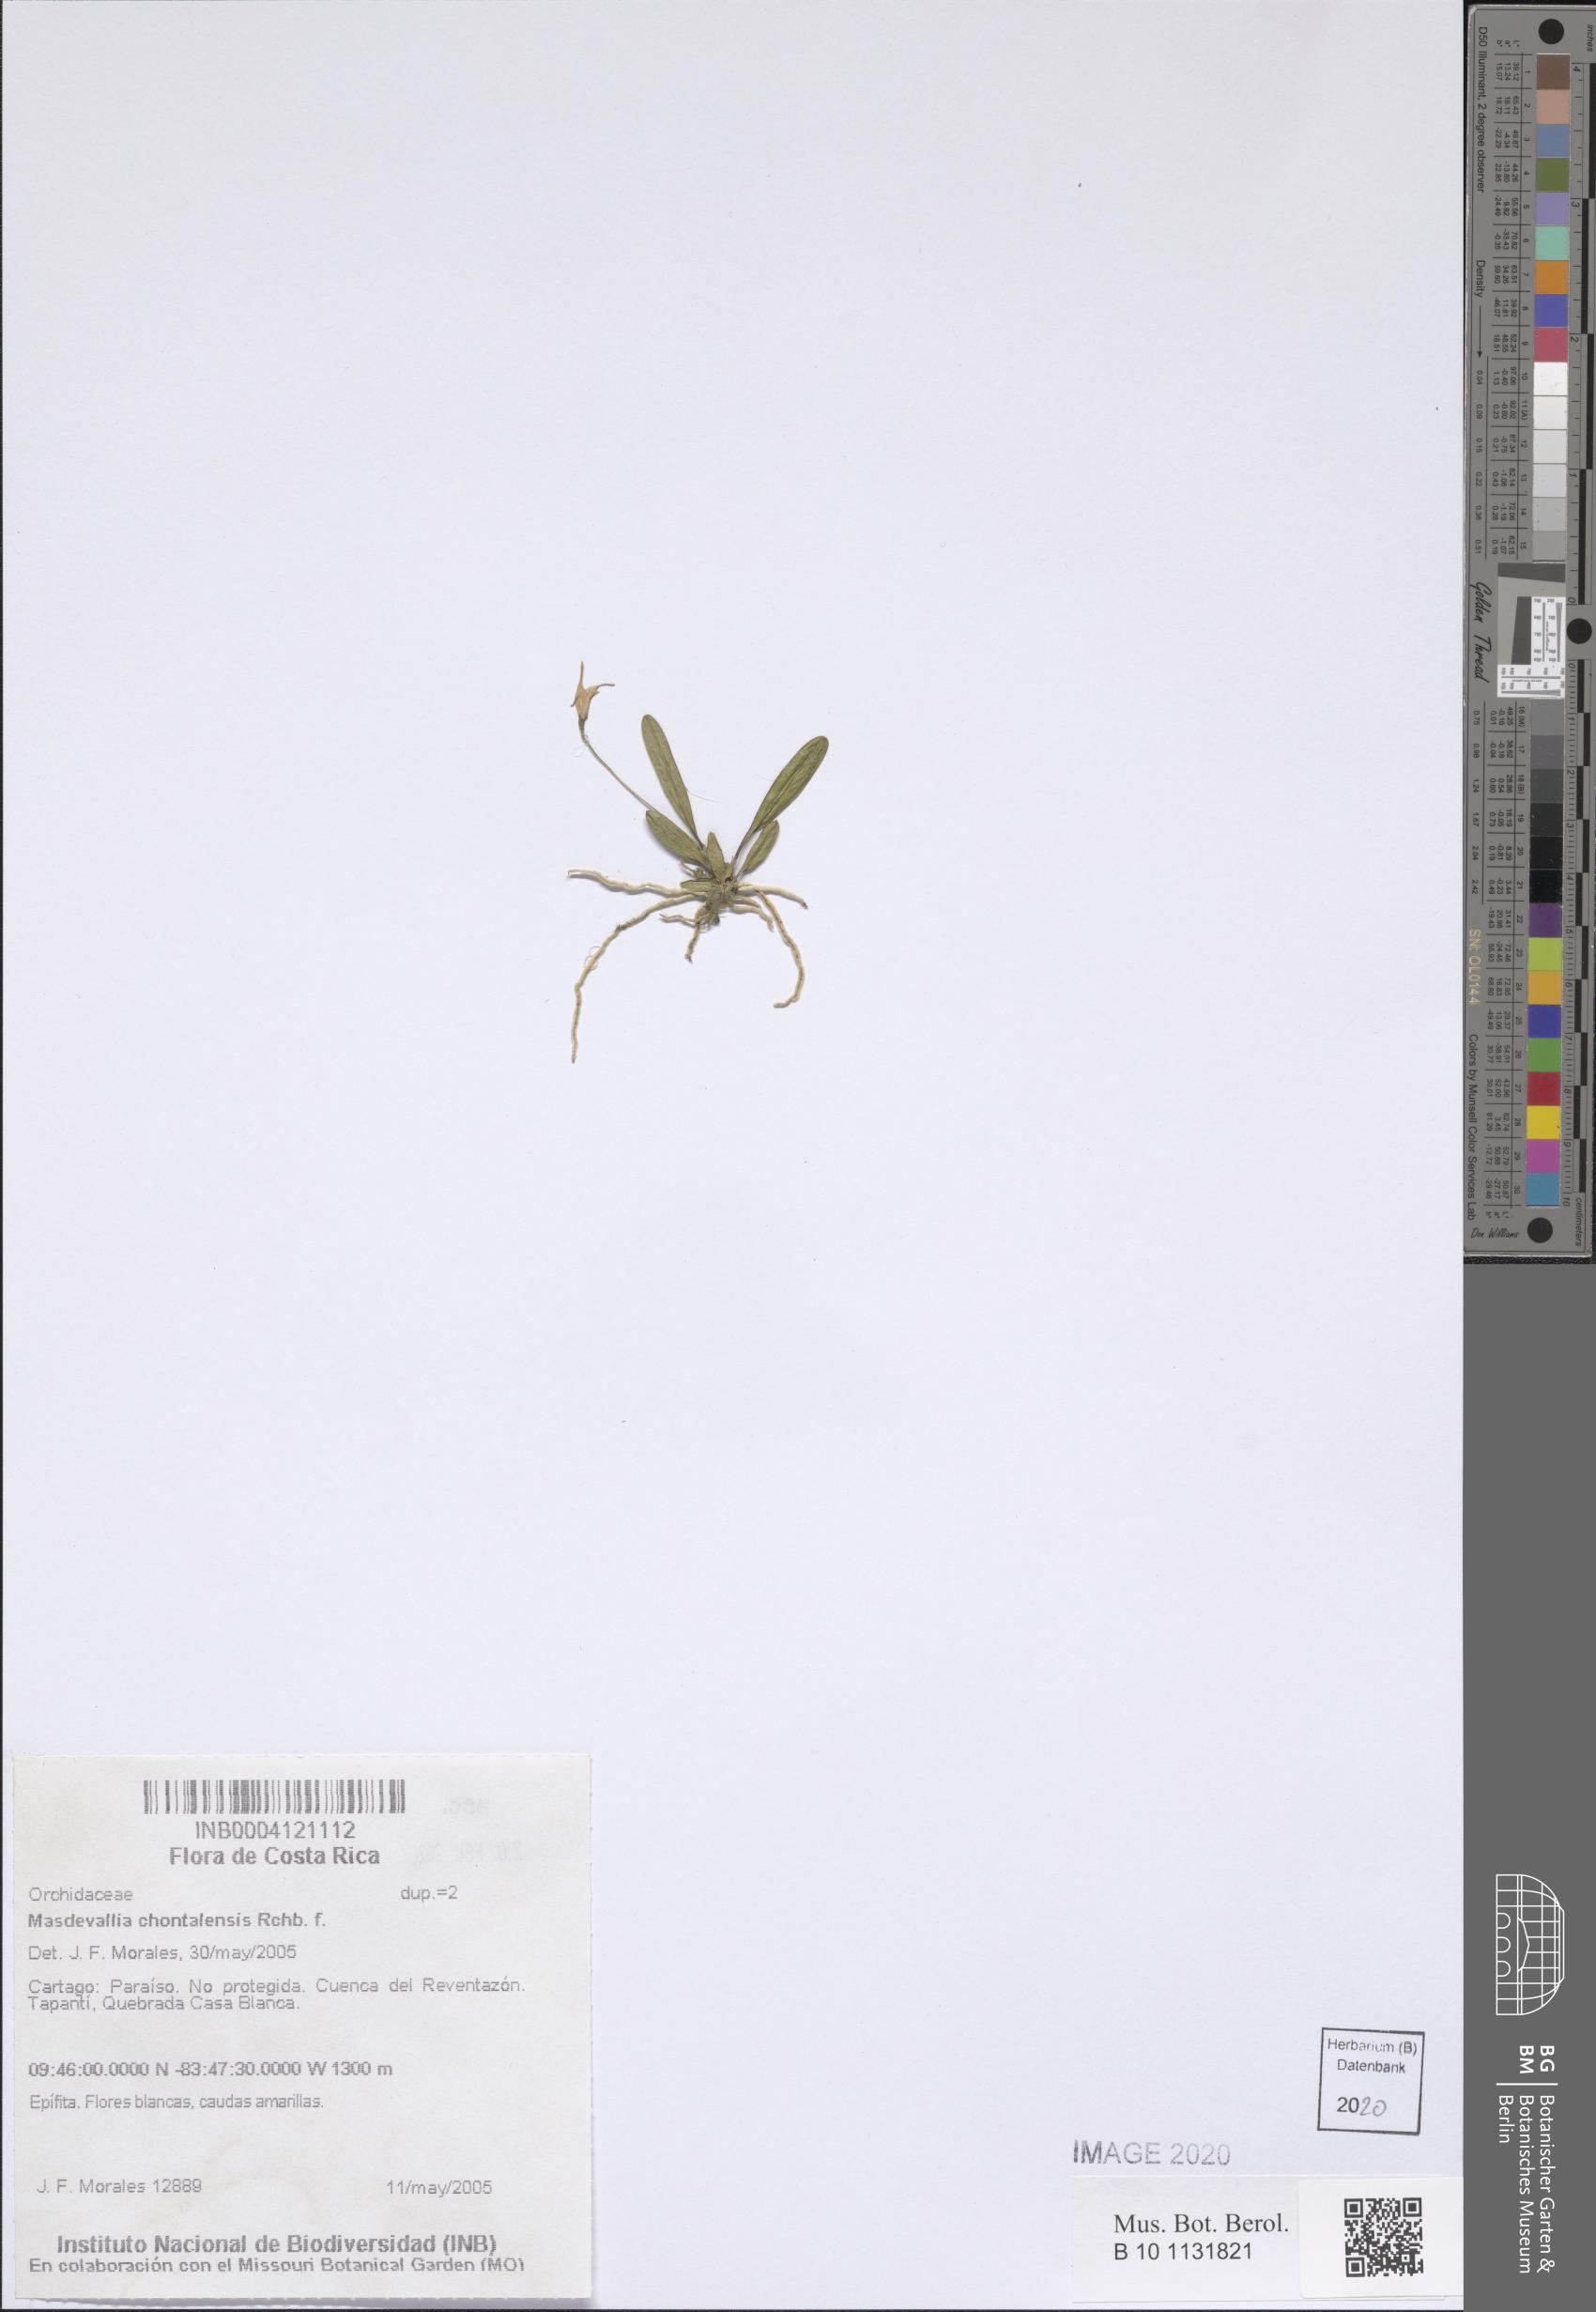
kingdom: Plantae
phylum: Tracheophyta
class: Liliopsida
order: Asparagales
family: Orchidaceae
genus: Masdevallia
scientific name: Masdevallia chontalensis
